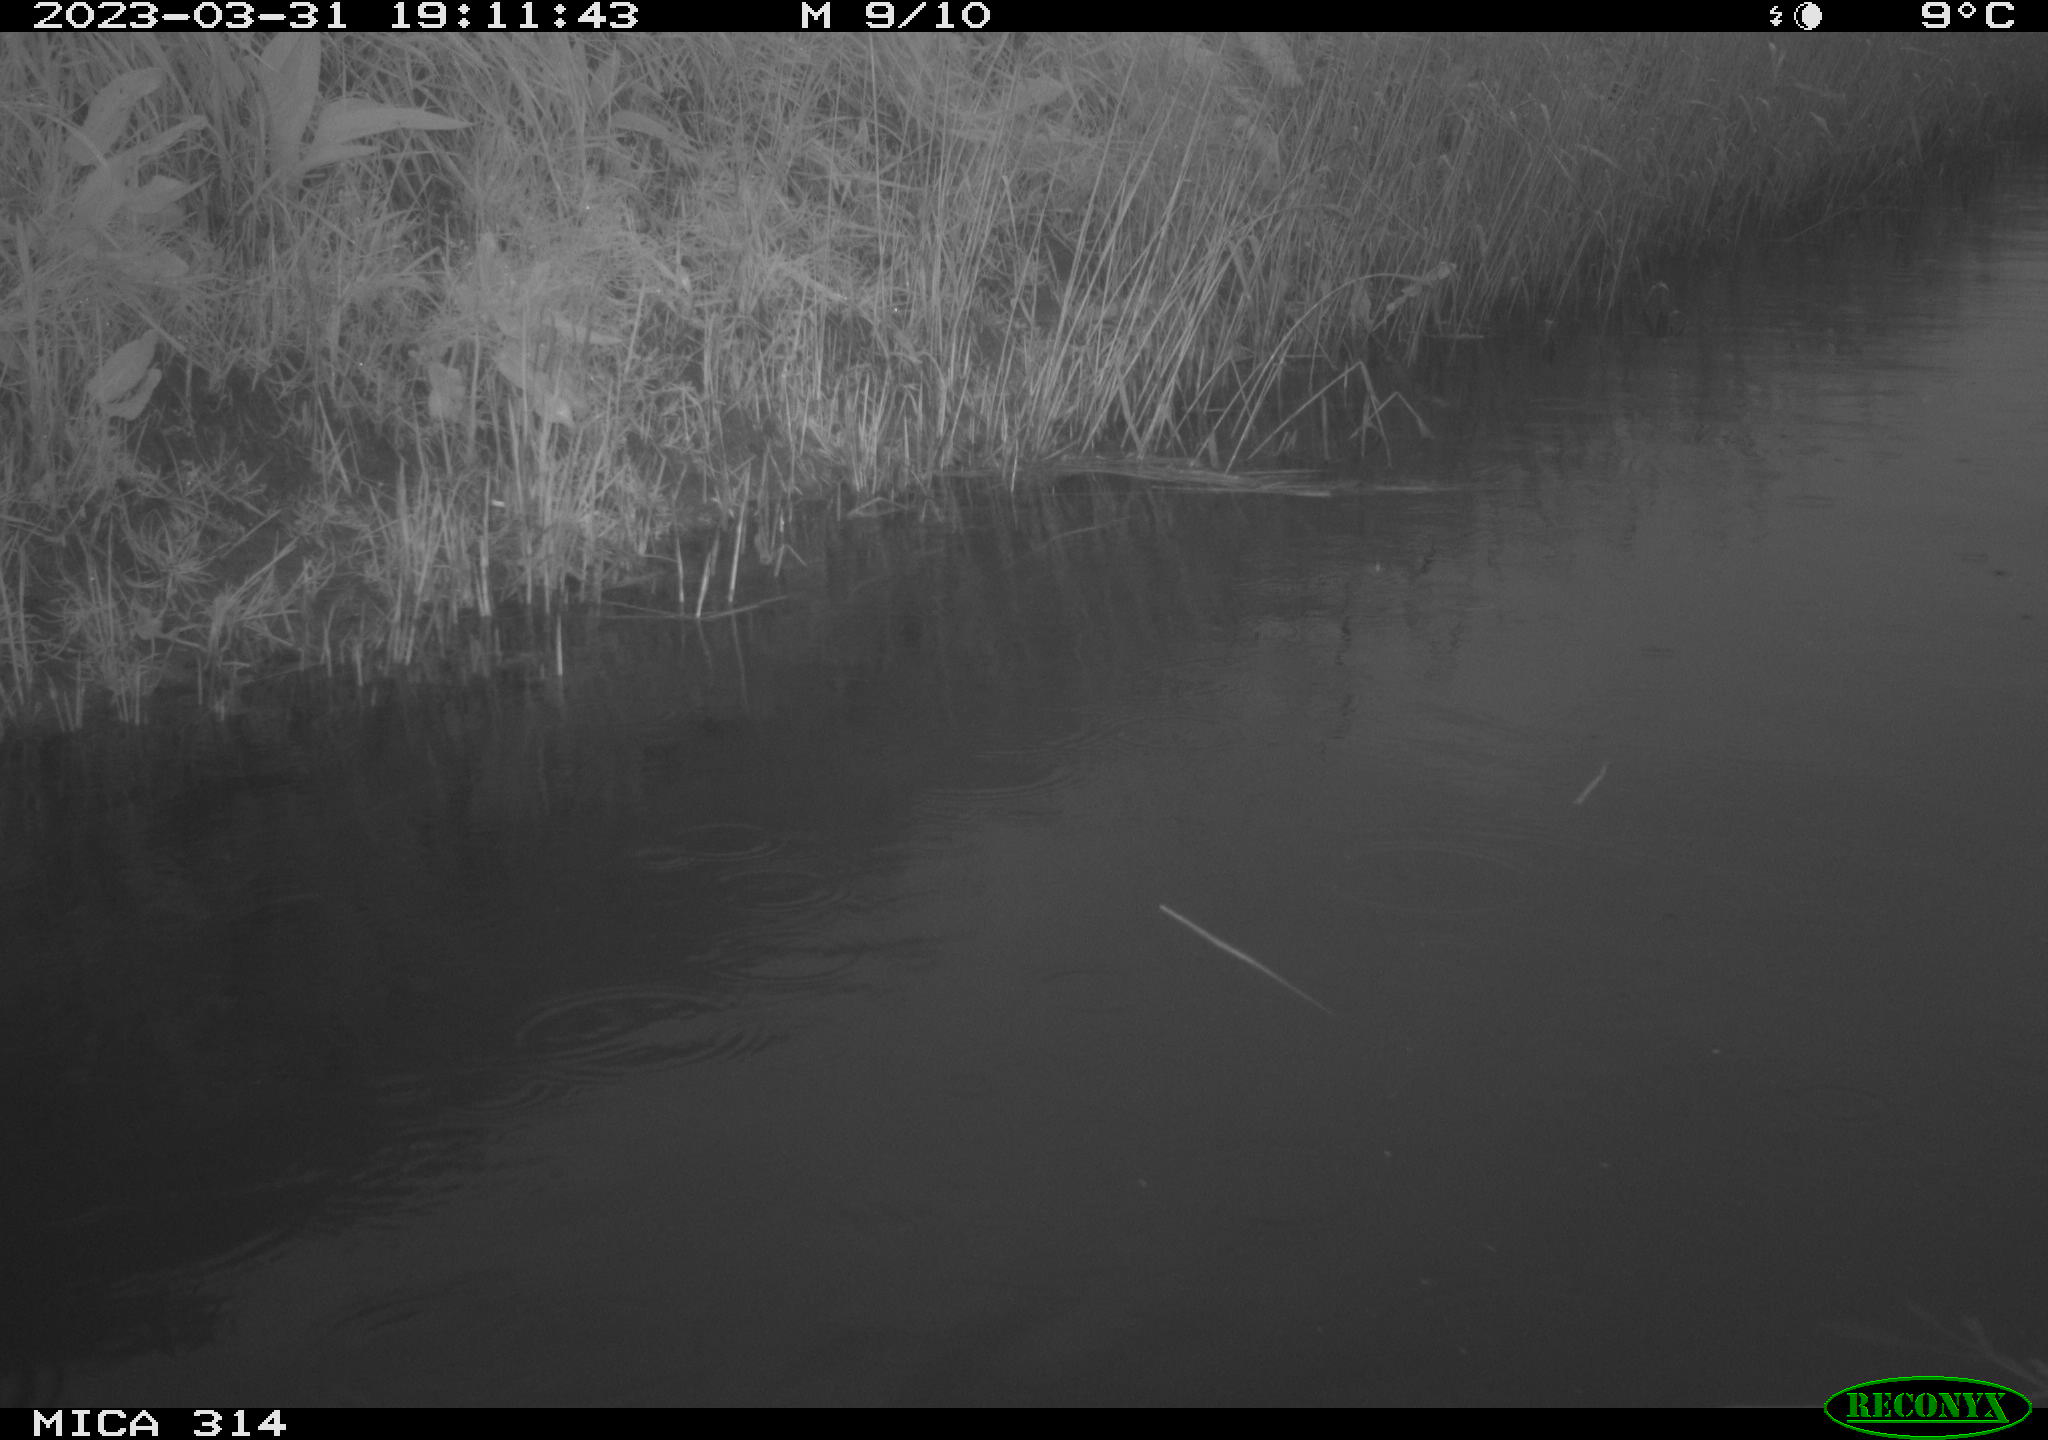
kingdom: Animalia
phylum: Chordata
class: Aves
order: Gruiformes
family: Rallidae
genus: Gallinula
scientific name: Gallinula chloropus
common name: Common moorhen
